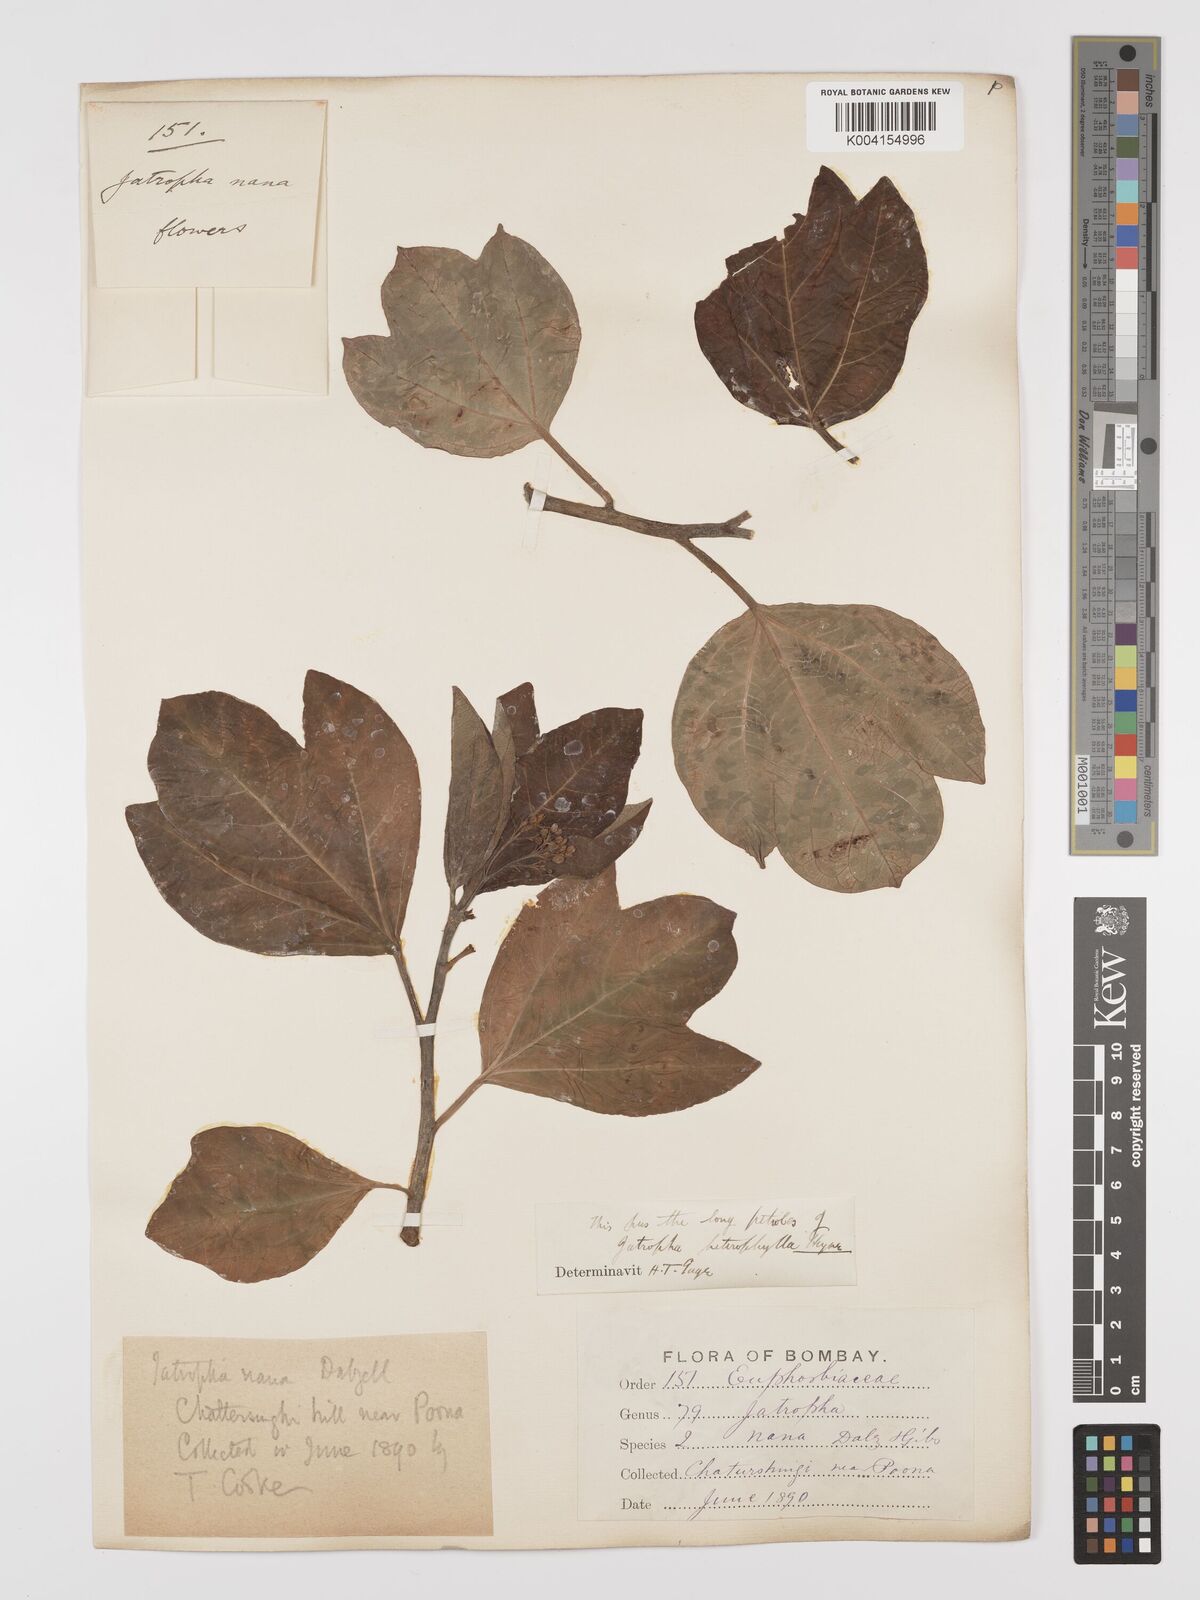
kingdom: Plantae
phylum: Tracheophyta
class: Magnoliopsida
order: Malpighiales
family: Euphorbiaceae
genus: Jatropha
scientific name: Jatropha nana
